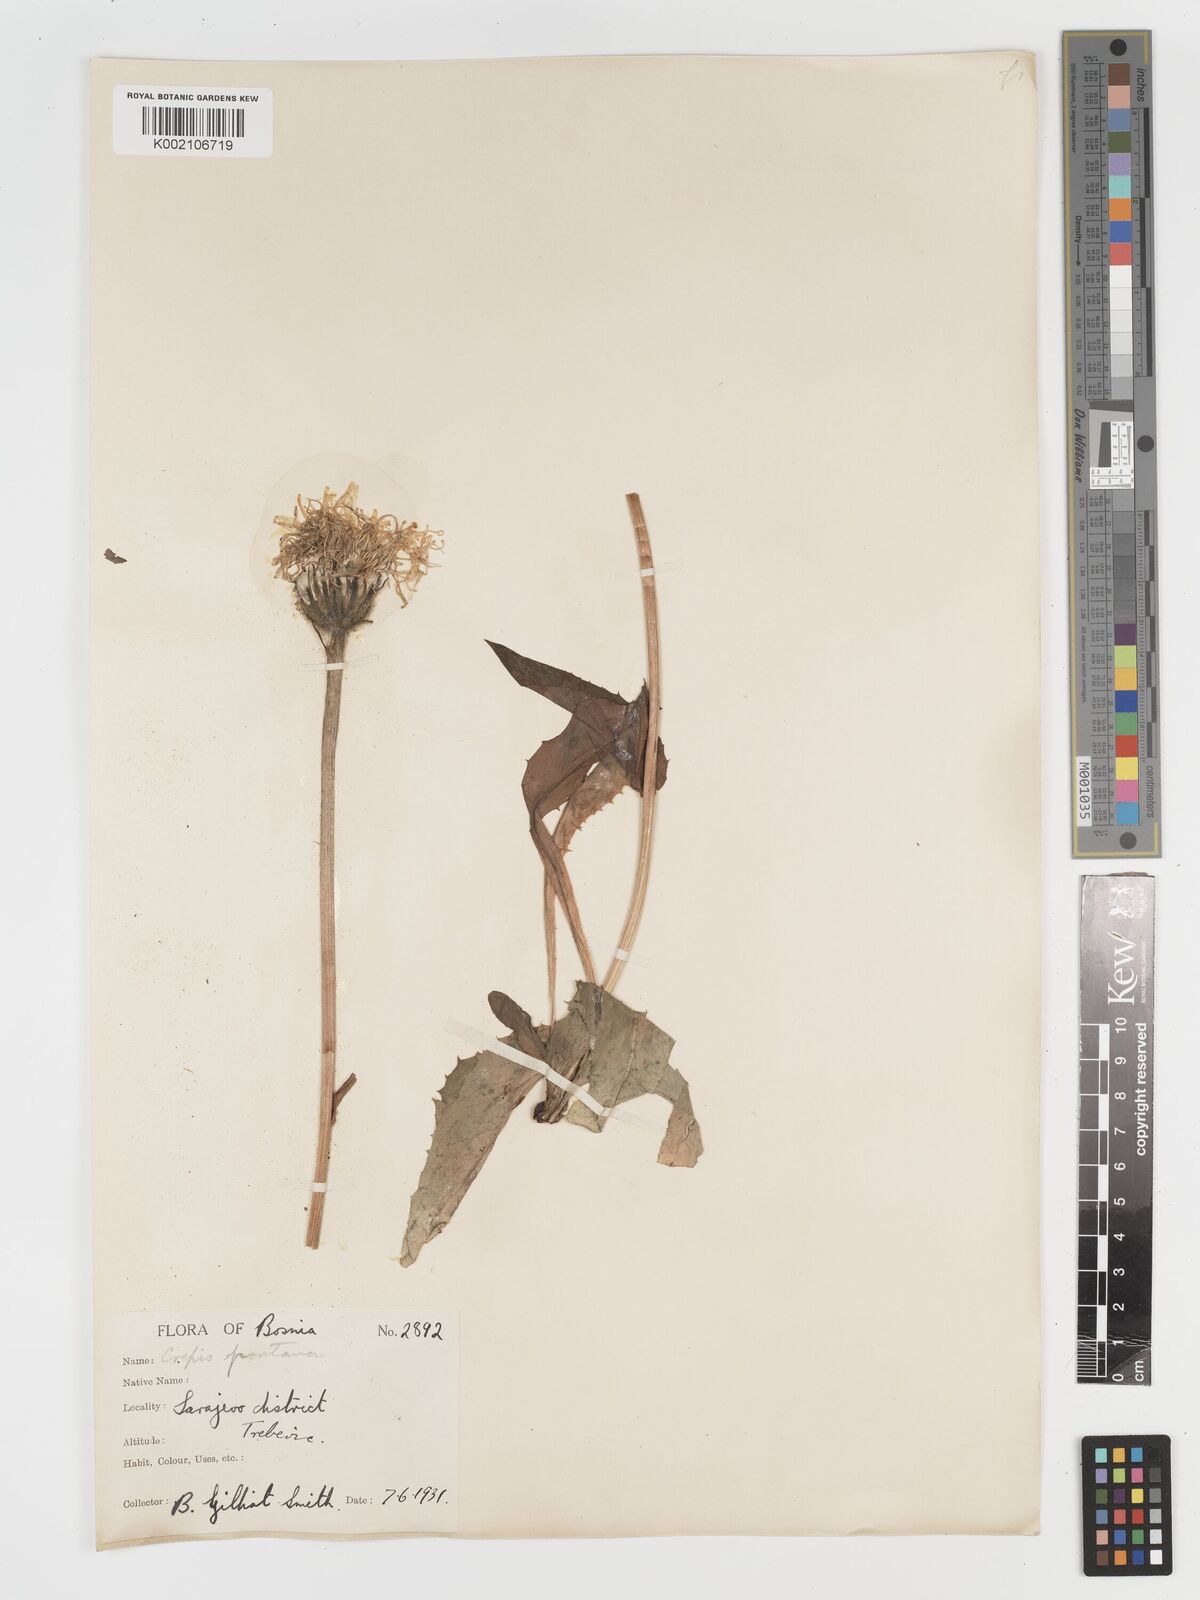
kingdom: Plantae
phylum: Tracheophyta
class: Magnoliopsida
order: Asterales
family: Asteraceae
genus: Crepis
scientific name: Crepis pontana
